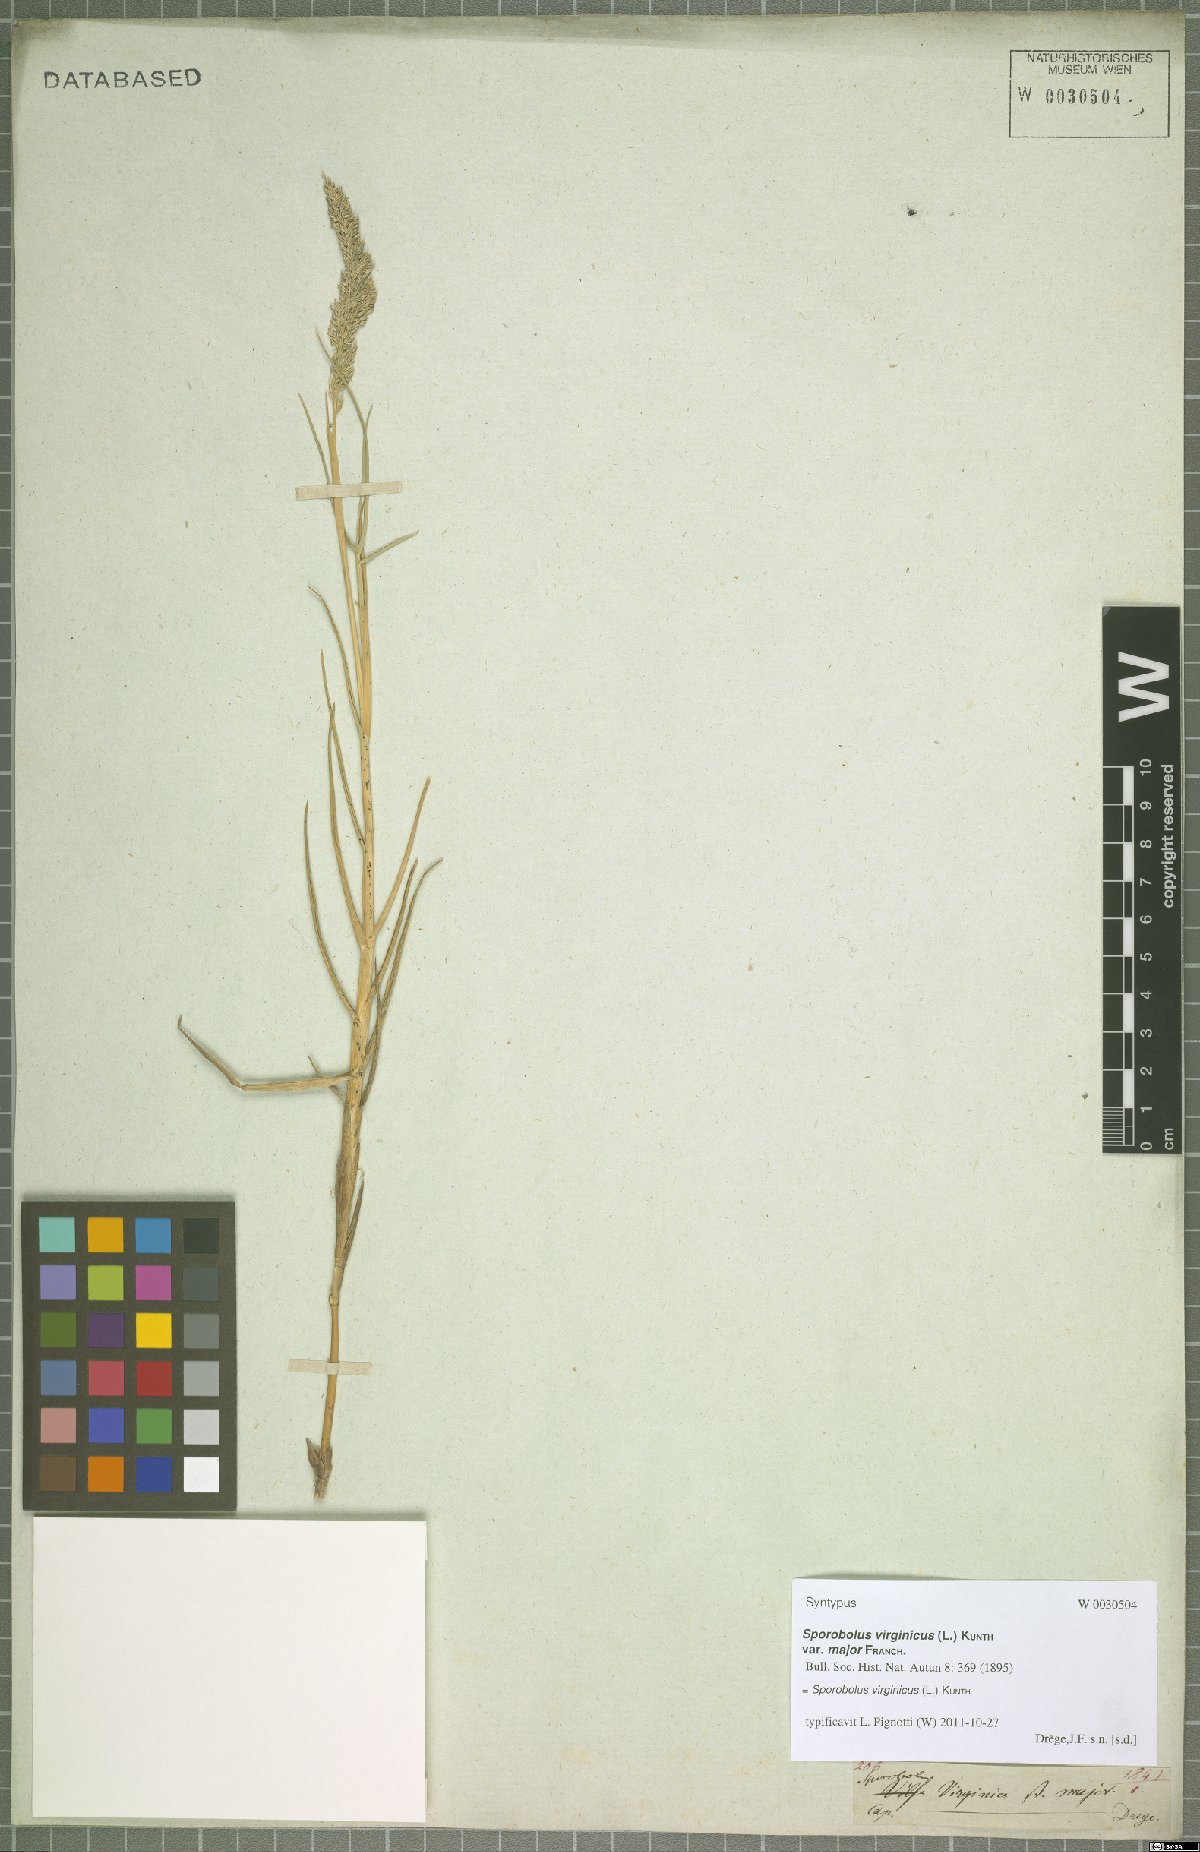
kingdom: Plantae
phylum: Tracheophyta
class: Liliopsida
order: Poales
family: Poaceae
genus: Sporobolus
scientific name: Sporobolus virginicus
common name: Beach dropseed
